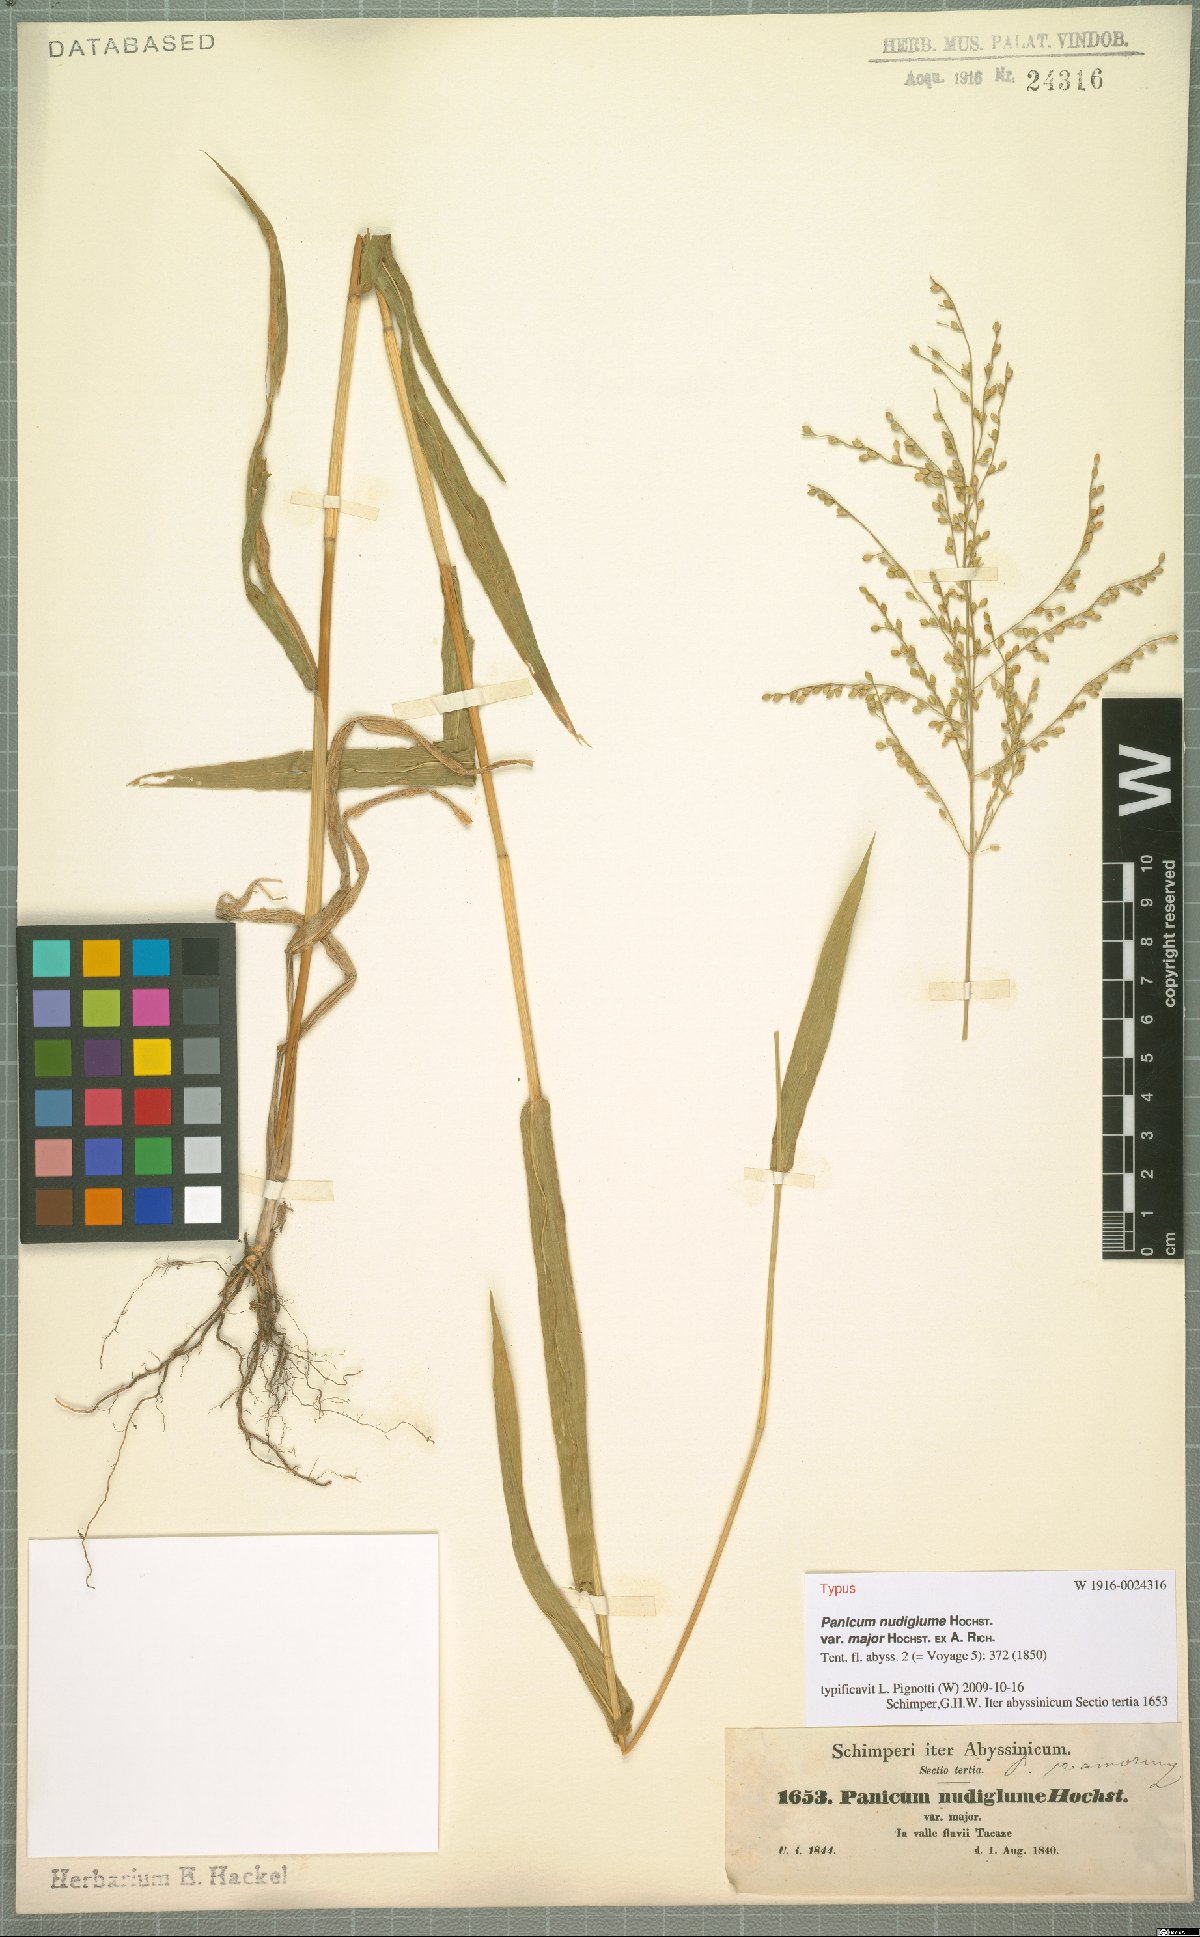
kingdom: Plantae
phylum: Tracheophyta
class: Liliopsida
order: Poales
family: Poaceae
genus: Urochloa
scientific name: Urochloa
